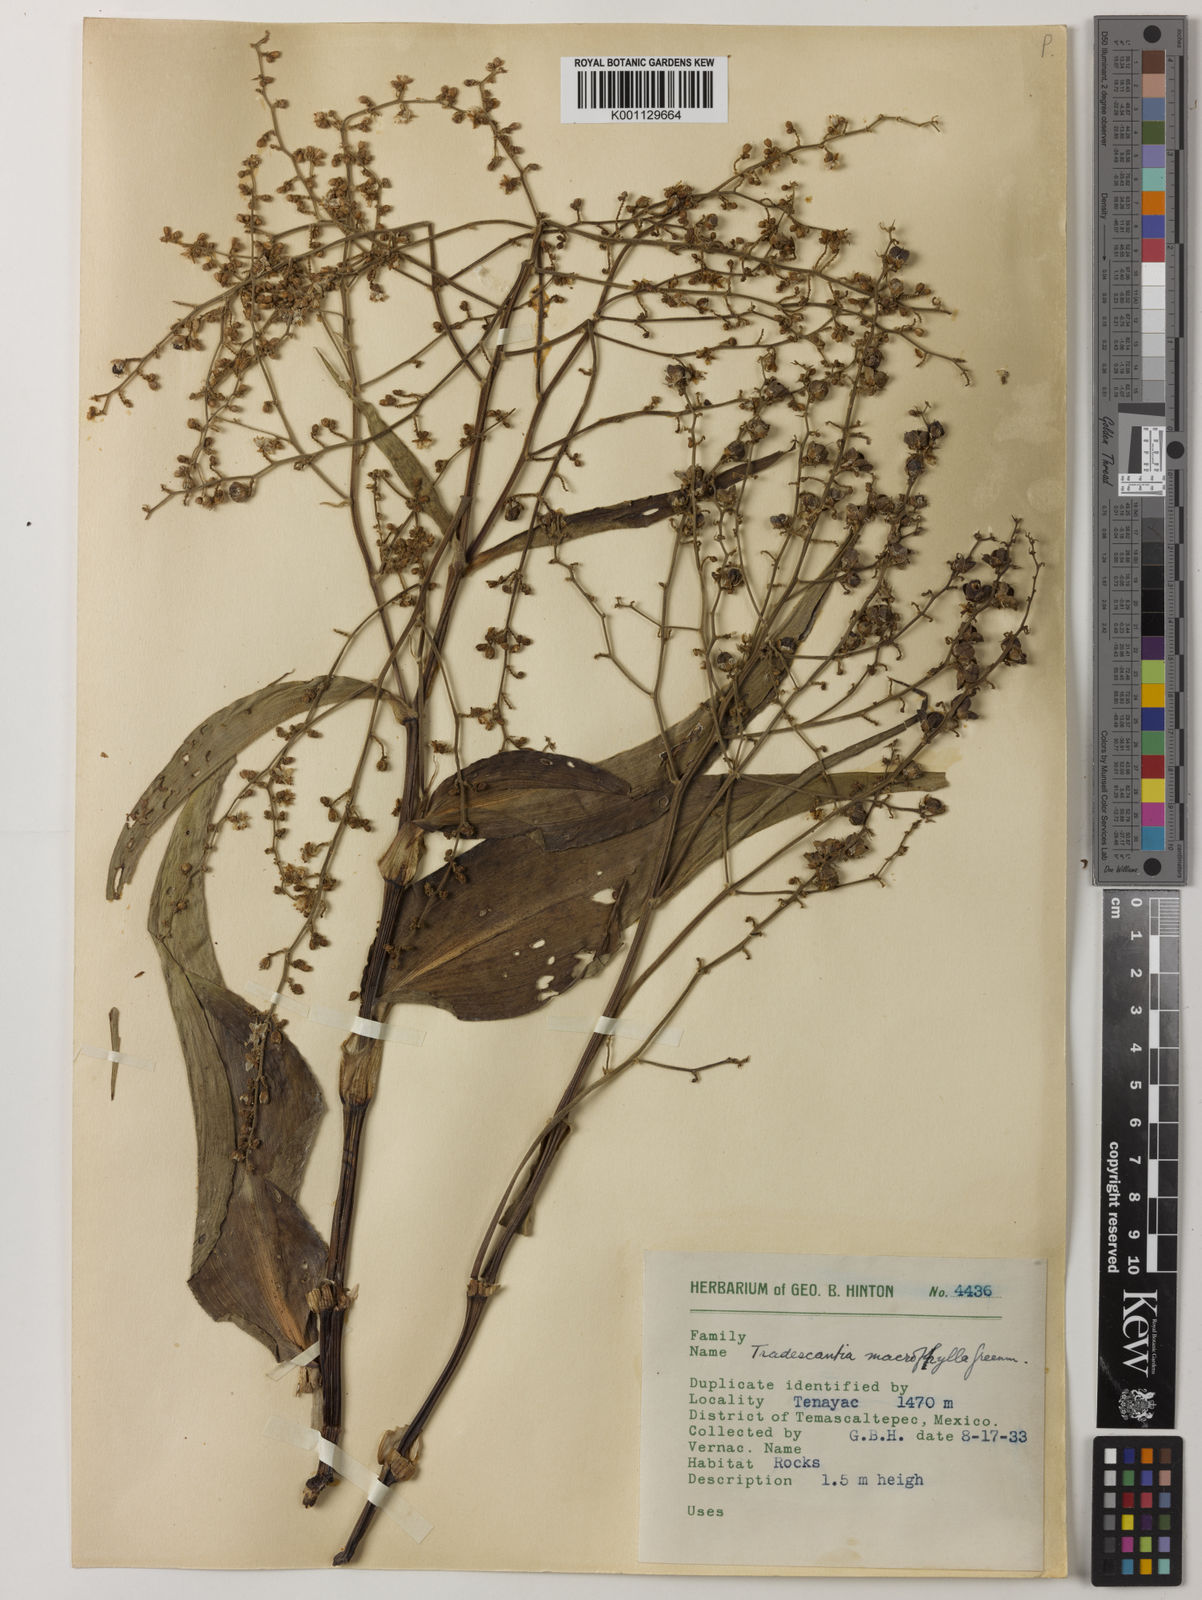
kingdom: Plantae
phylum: Tracheophyta
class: Liliopsida
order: Commelinales
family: Commelinaceae
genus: Thyrsanthemum
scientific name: Thyrsanthemum longifolium
